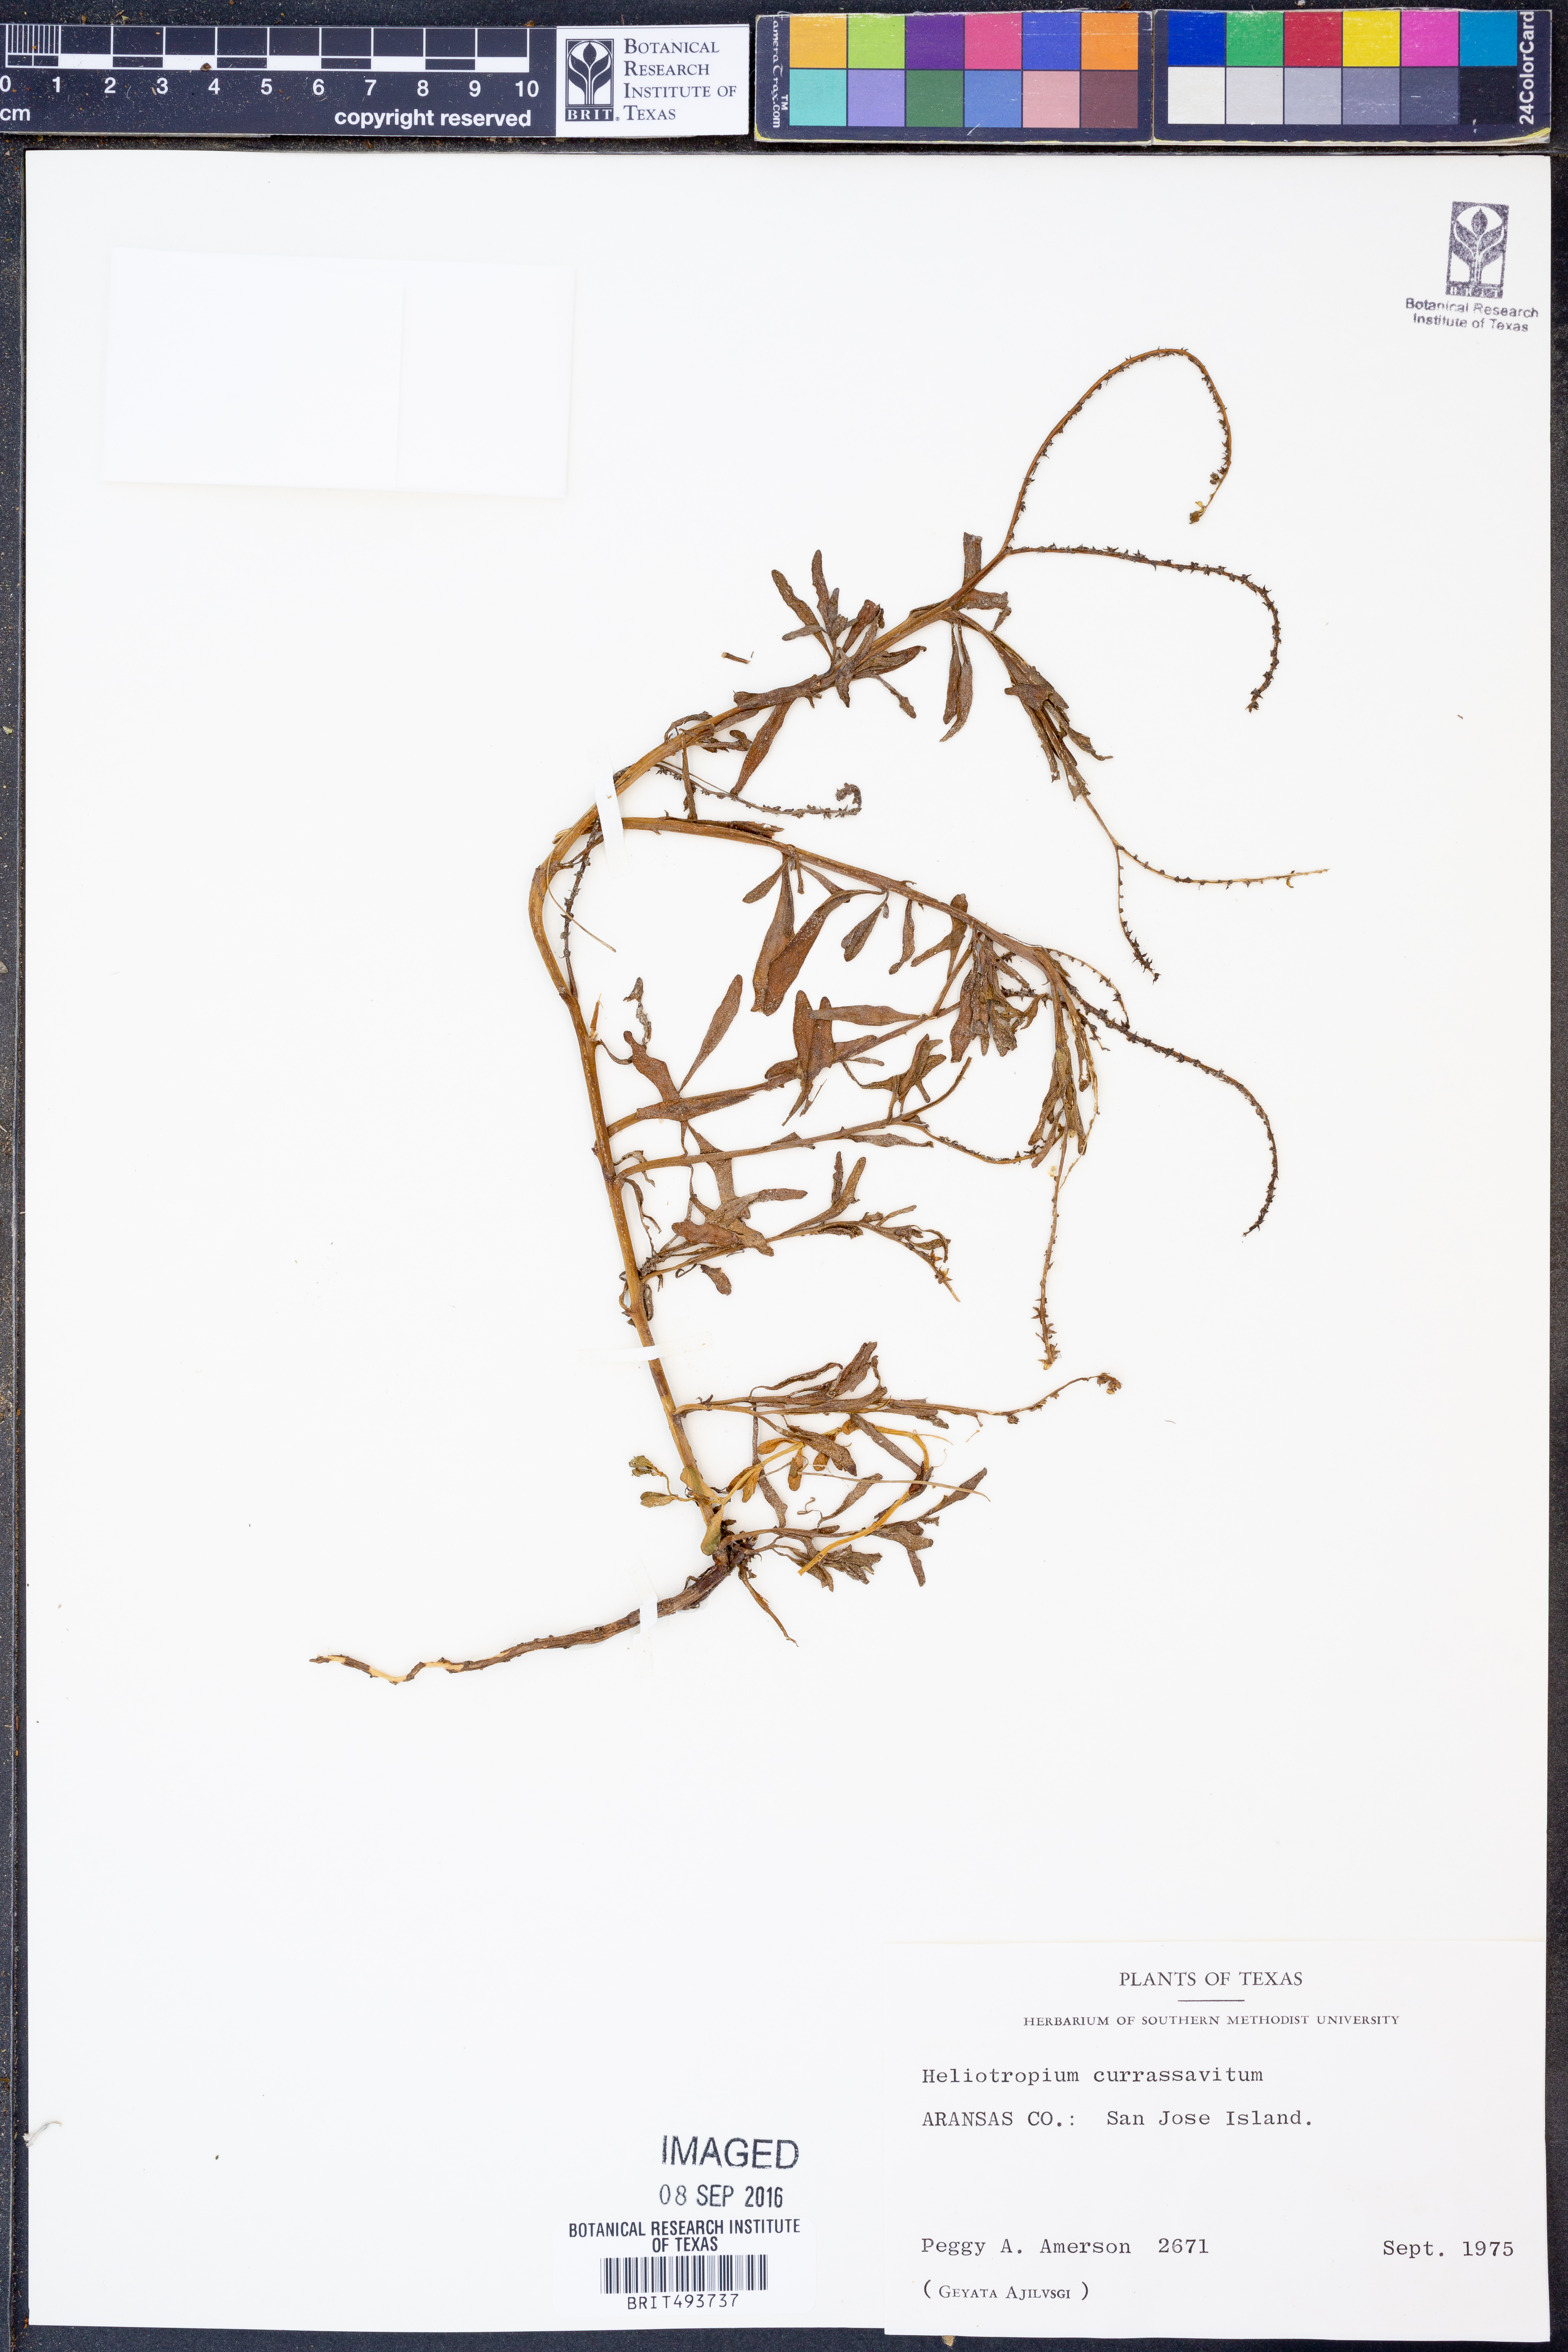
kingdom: Plantae
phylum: Tracheophyta
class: Magnoliopsida
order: Boraginales
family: Heliotropiaceae
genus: Heliotropium
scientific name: Heliotropium curassavicum
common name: Seaside heliotrope
